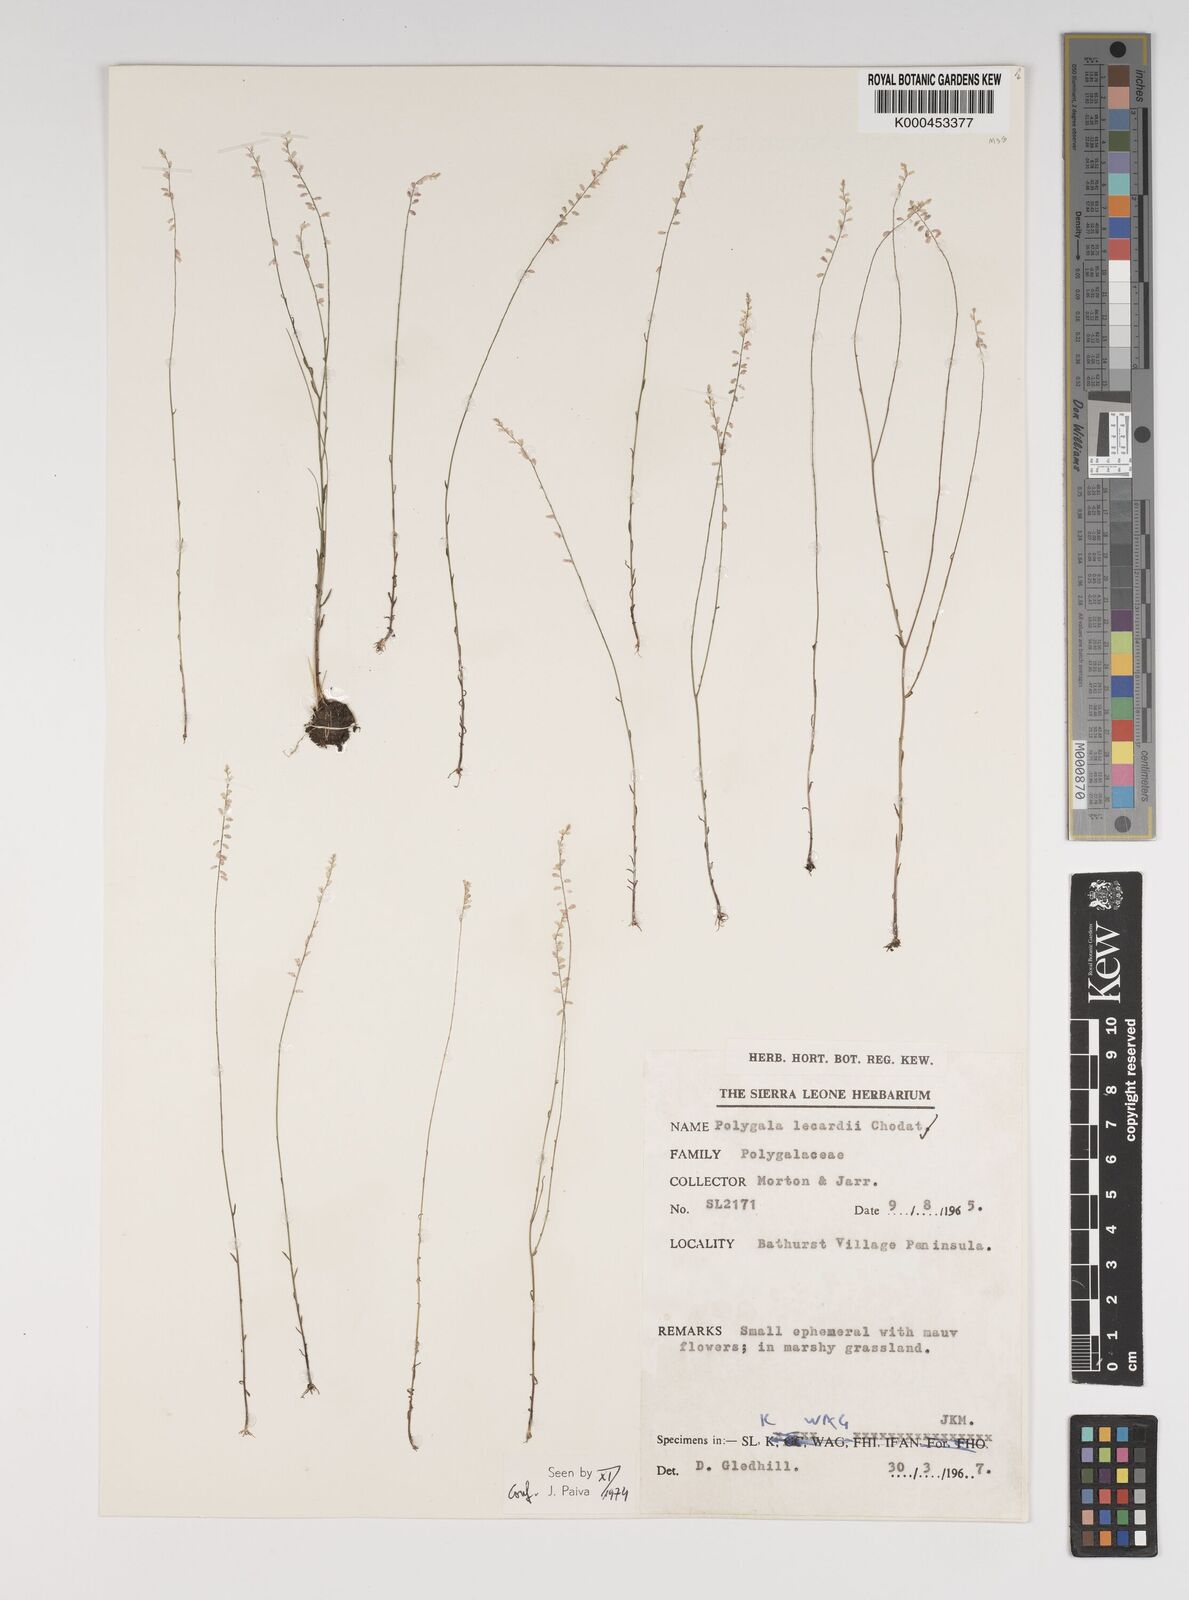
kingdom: Plantae
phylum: Tracheophyta
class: Magnoliopsida
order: Fabales
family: Polygalaceae
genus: Polygala
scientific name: Polygala lecardii
